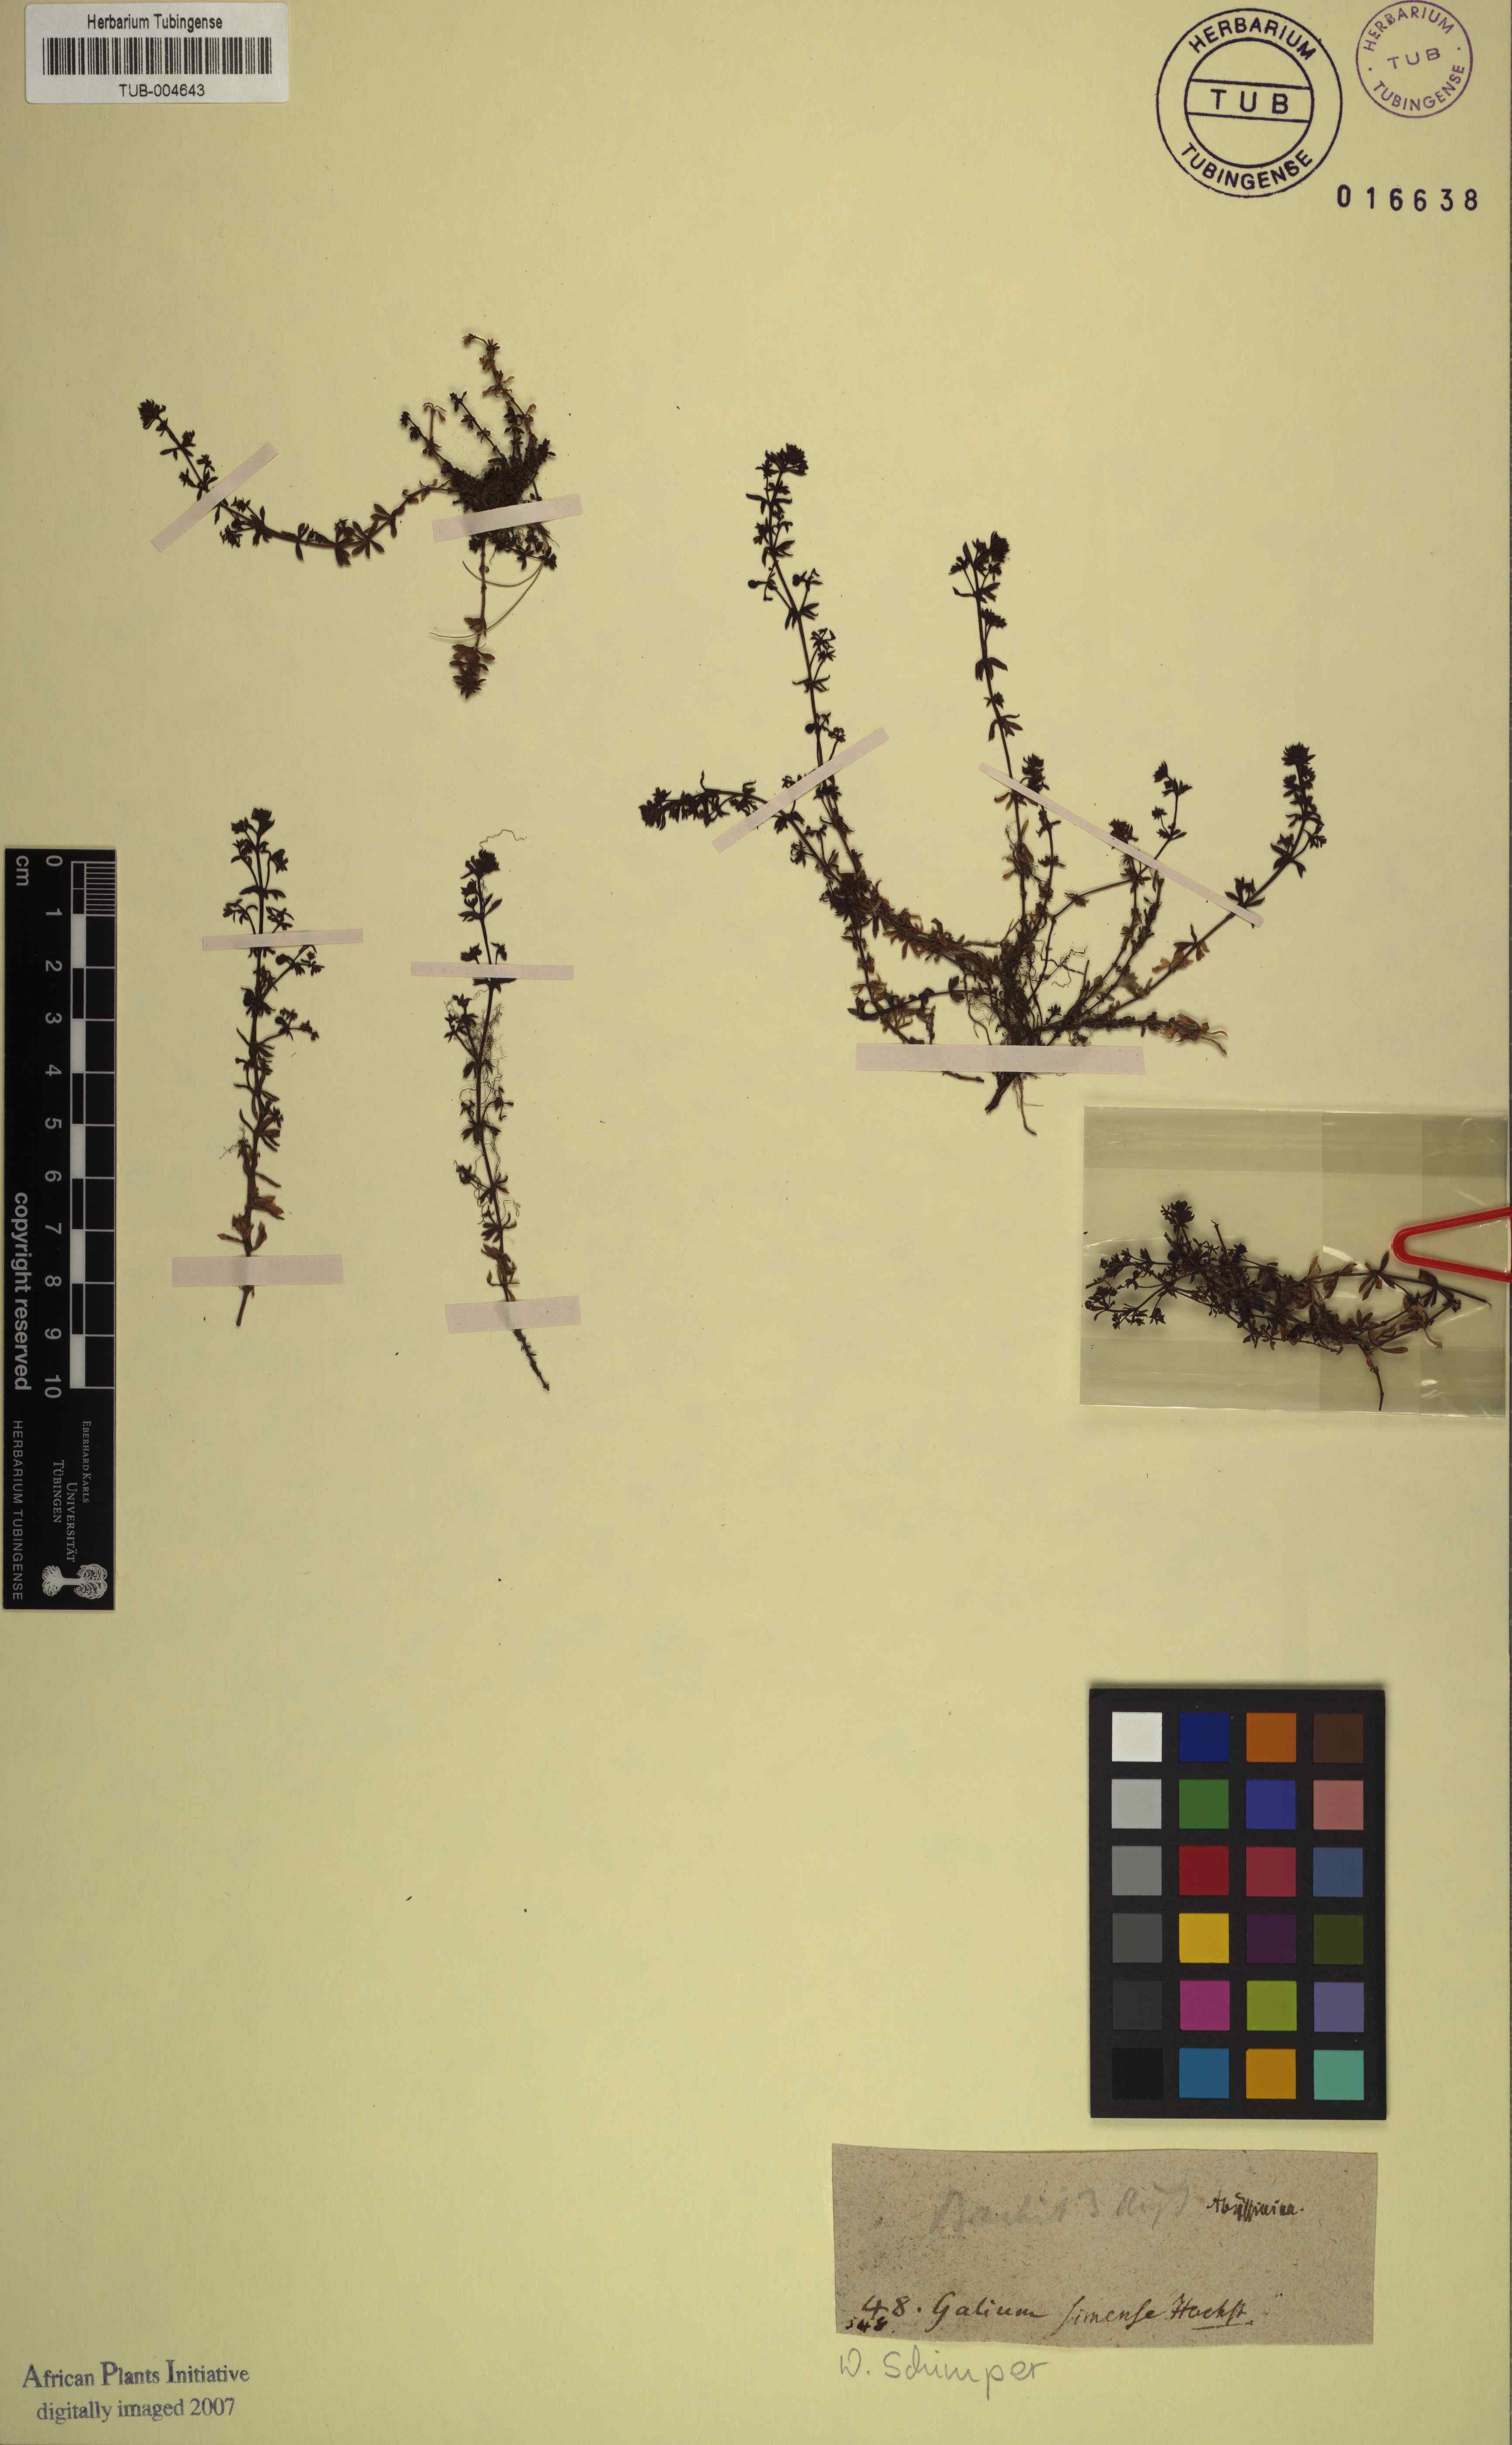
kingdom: Plantae
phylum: Tracheophyta
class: Magnoliopsida
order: Gentianales
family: Rubiaceae
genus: Galium
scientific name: Galium acrophyum
